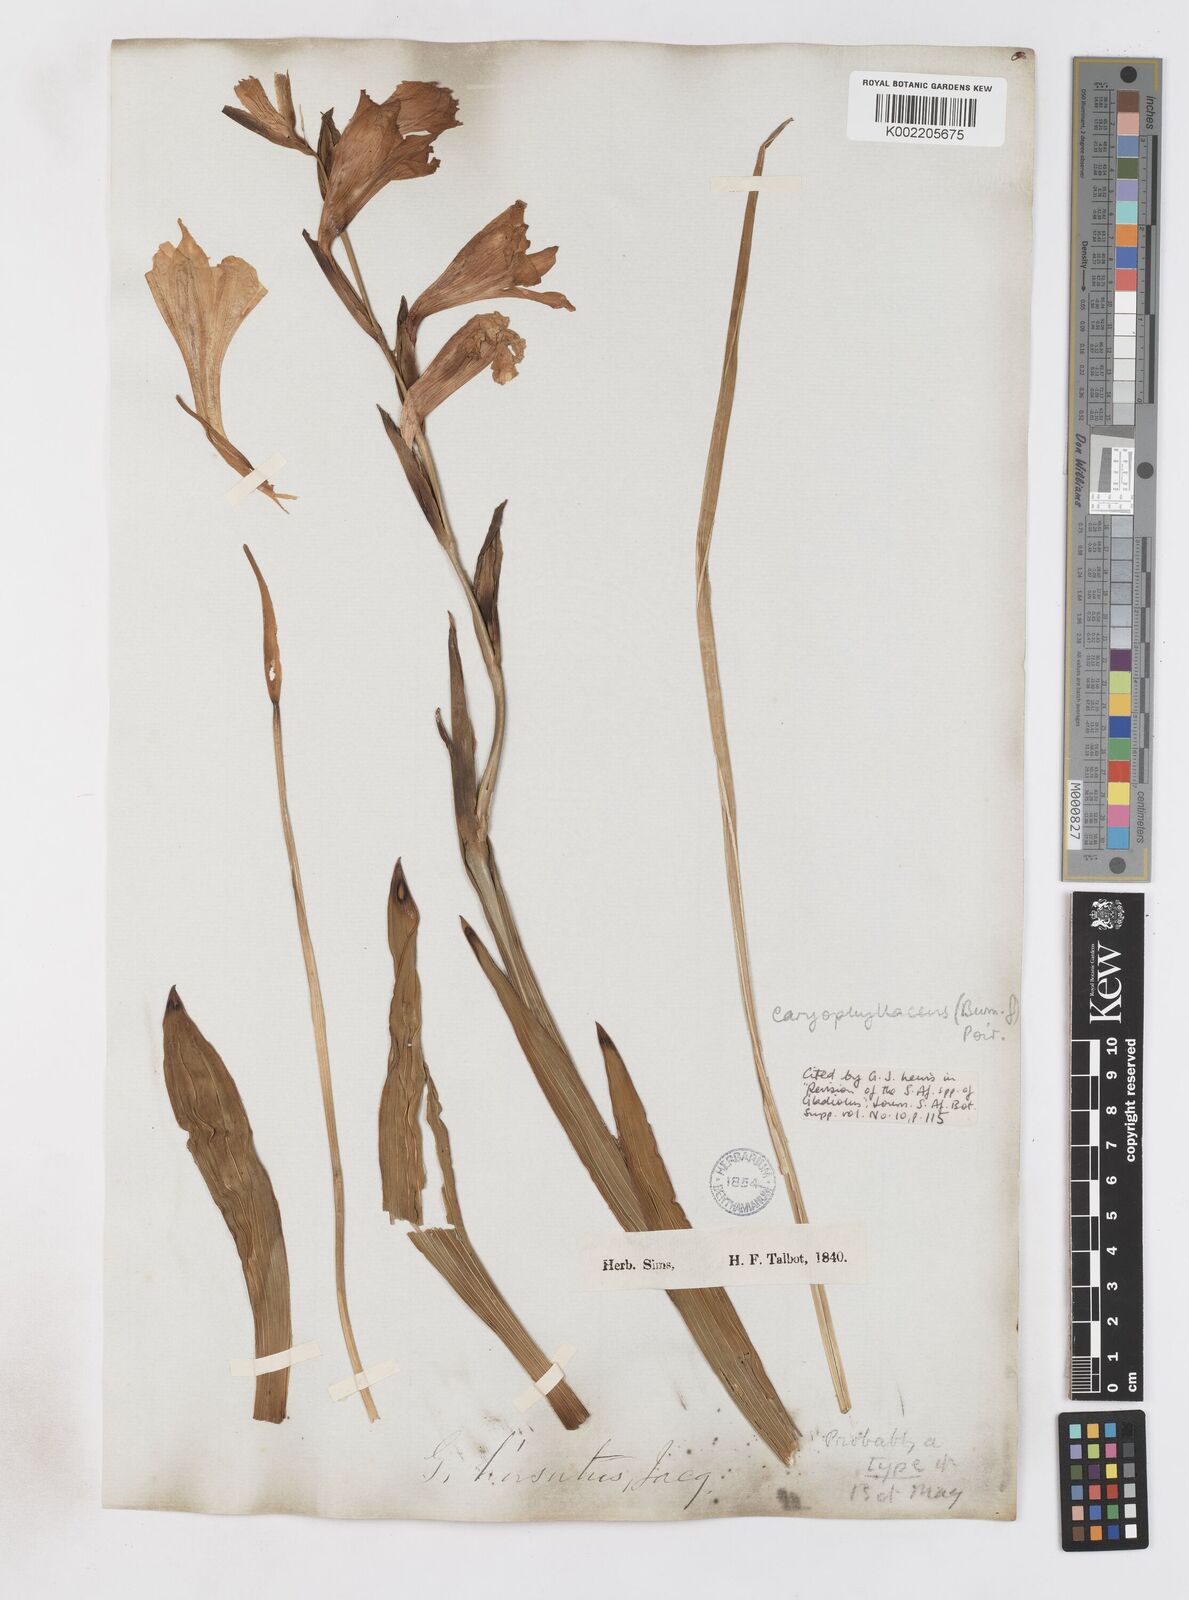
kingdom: Plantae
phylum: Tracheophyta
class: Liliopsida
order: Asparagales
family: Iridaceae
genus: Gladiolus
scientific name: Gladiolus caryophyllaceus
